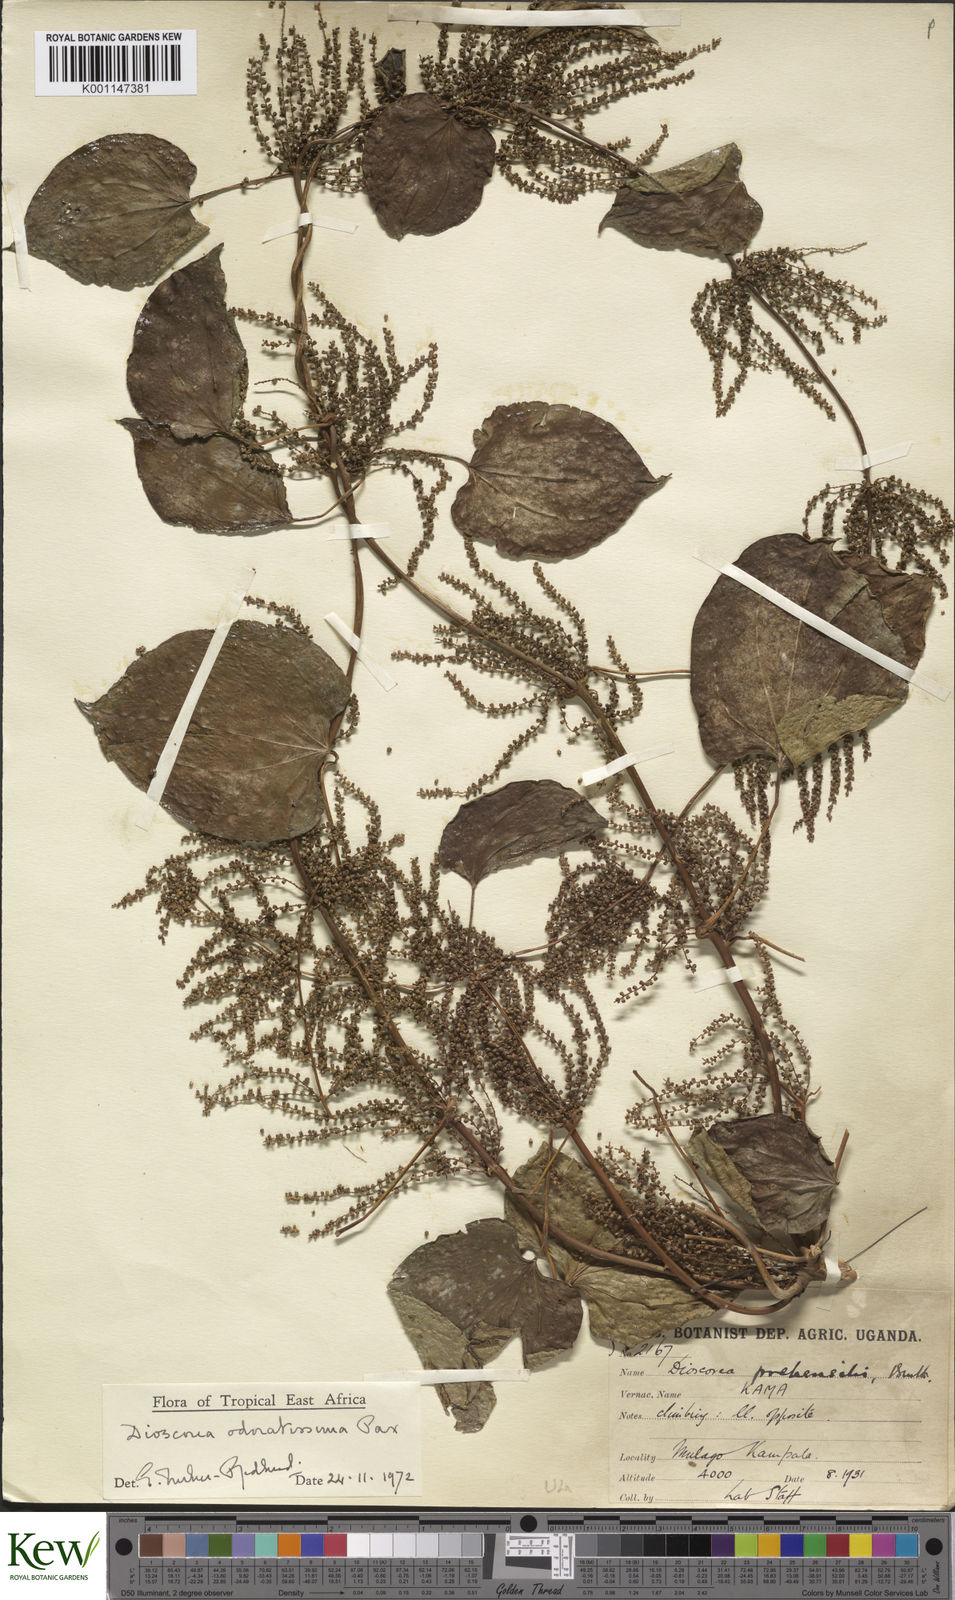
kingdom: Plantae
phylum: Tracheophyta
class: Liliopsida
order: Dioscoreales
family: Dioscoreaceae
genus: Dioscorea
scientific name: Dioscorea
